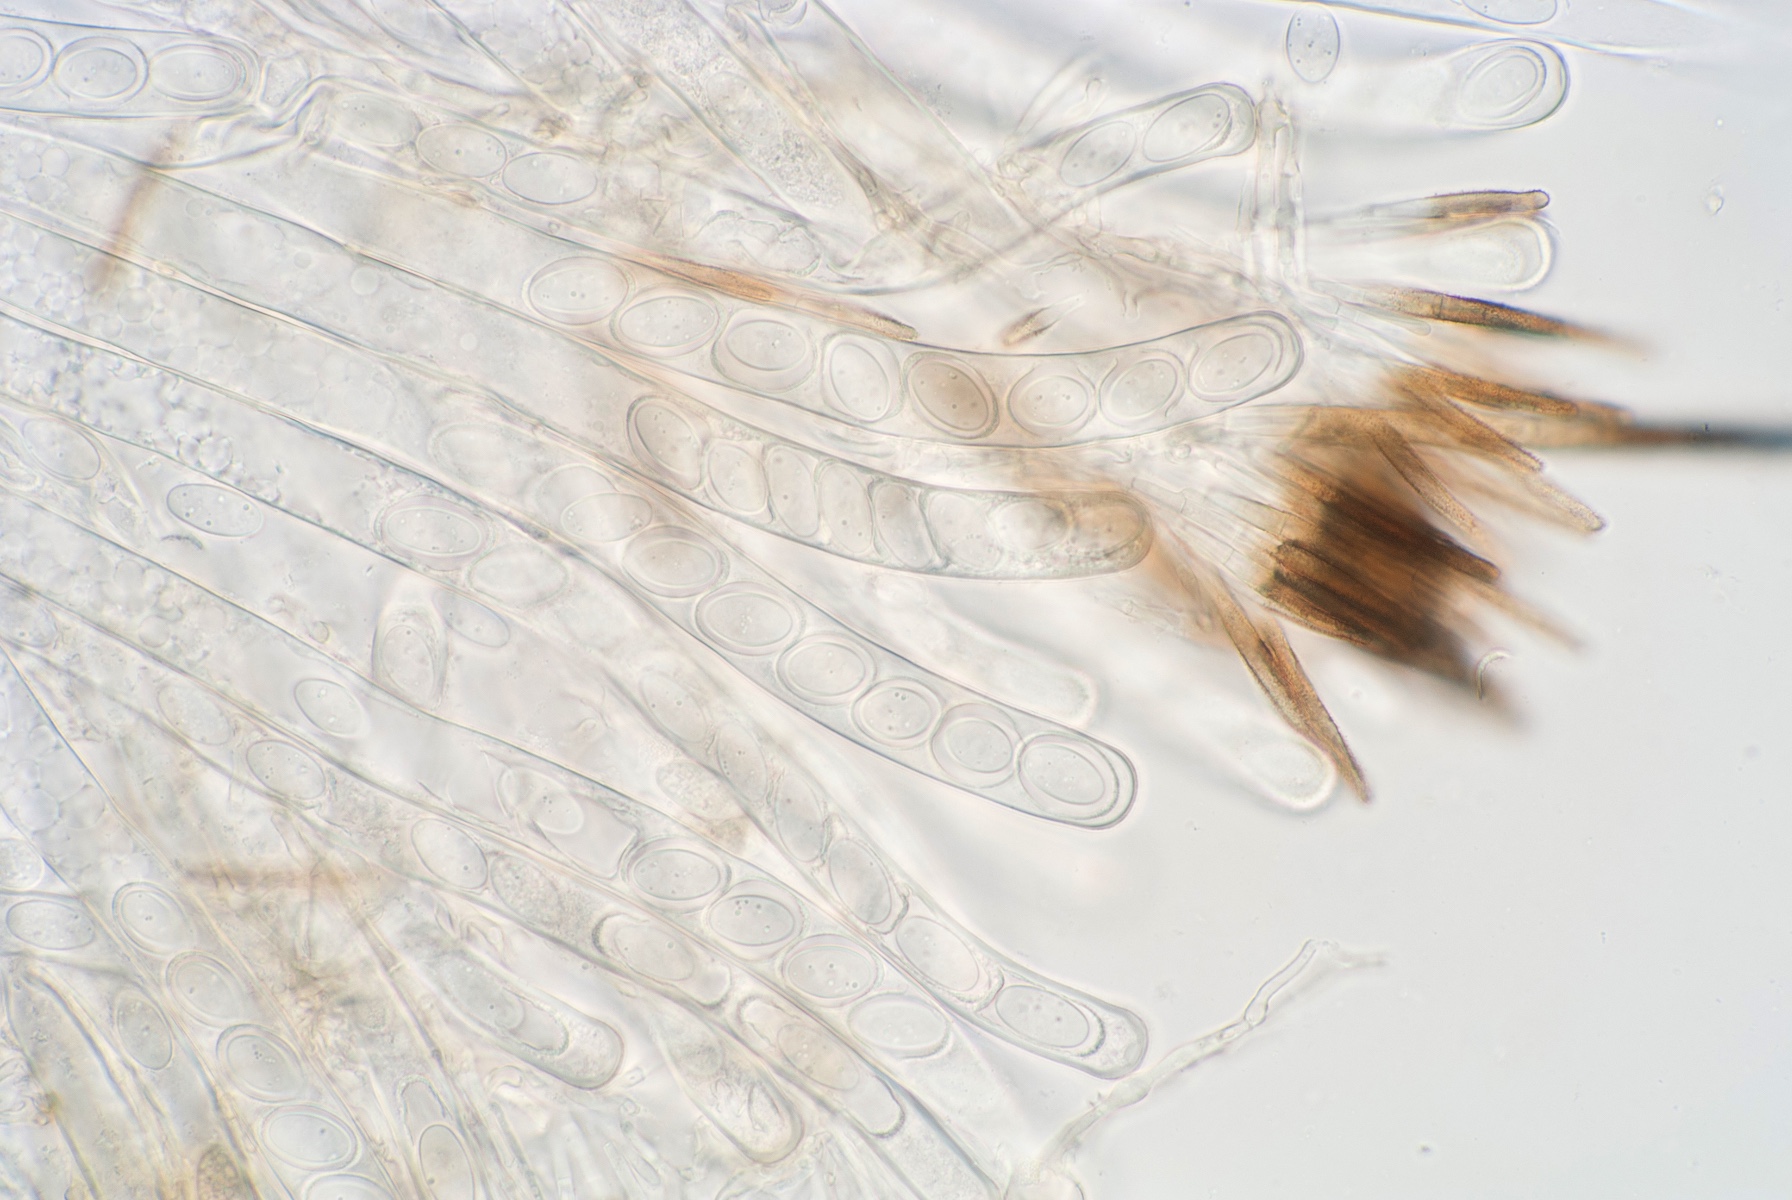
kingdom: Fungi
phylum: Ascomycota
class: Pezizomycetes
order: Pezizales
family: Chorioactidaceae
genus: Desmazierella
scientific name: Desmazierella acicola
